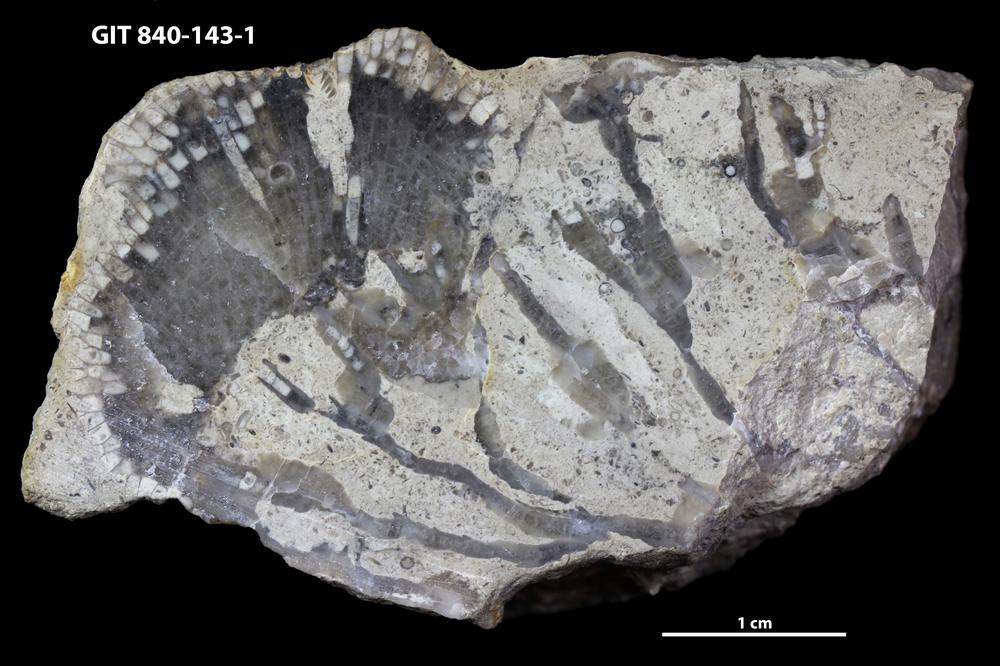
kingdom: Animalia
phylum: Cnidaria
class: Anthozoa
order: Heliolitina
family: Proheliolitidae
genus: Protoheliolites
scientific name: Protoheliolites
